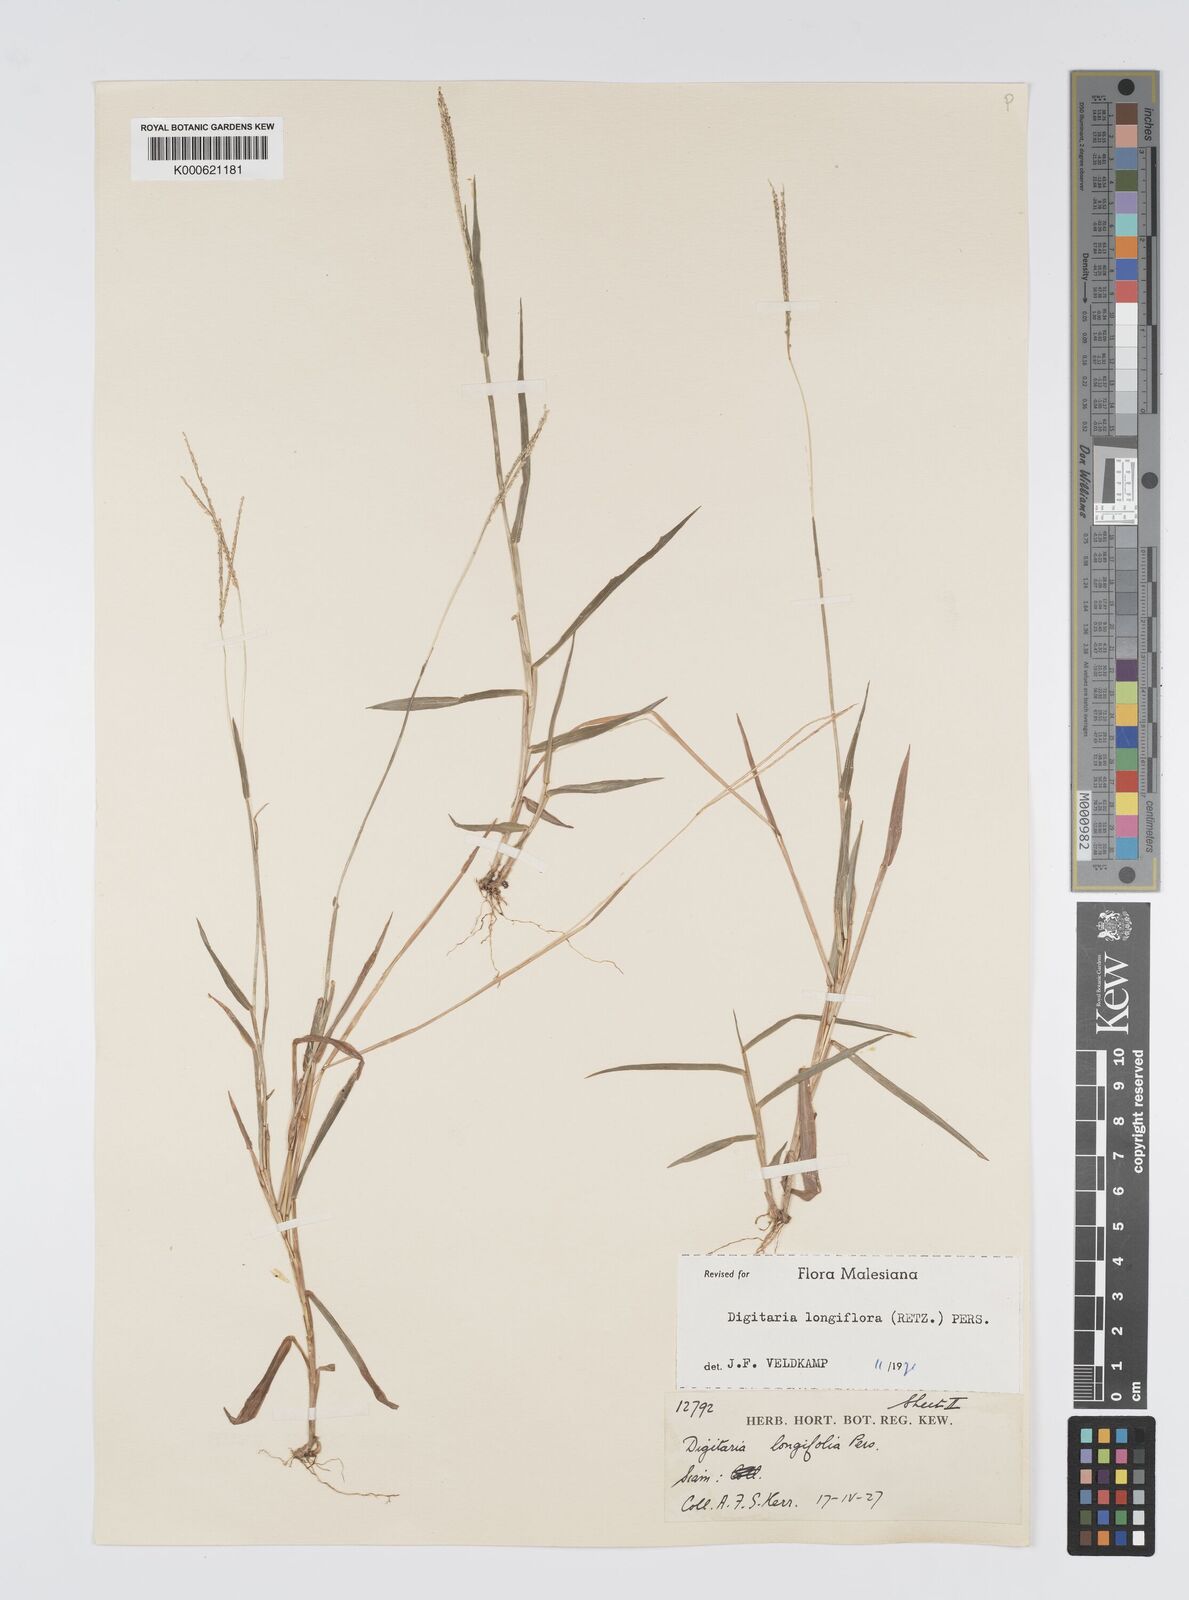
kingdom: Plantae
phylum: Tracheophyta
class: Liliopsida
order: Poales
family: Poaceae
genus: Digitaria
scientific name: Digitaria longiflora
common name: Wire crabgrass
